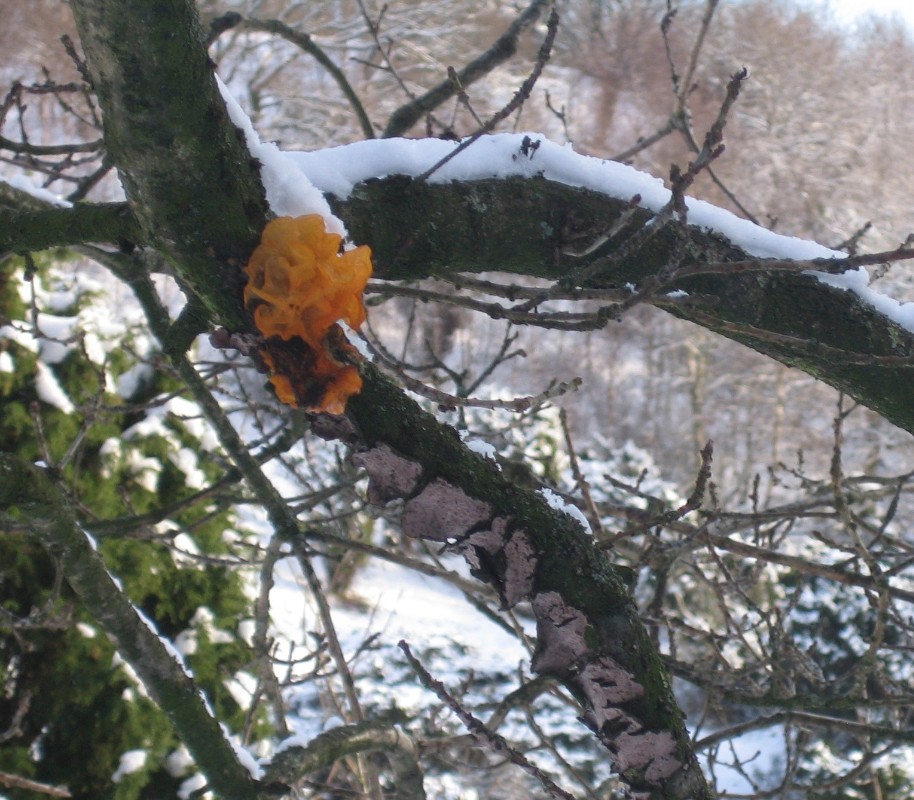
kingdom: Fungi
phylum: Basidiomycota
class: Tremellomycetes
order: Tremellales
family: Tremellaceae
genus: Tremella
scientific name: Tremella mesenterica
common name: gul bævresvamp
